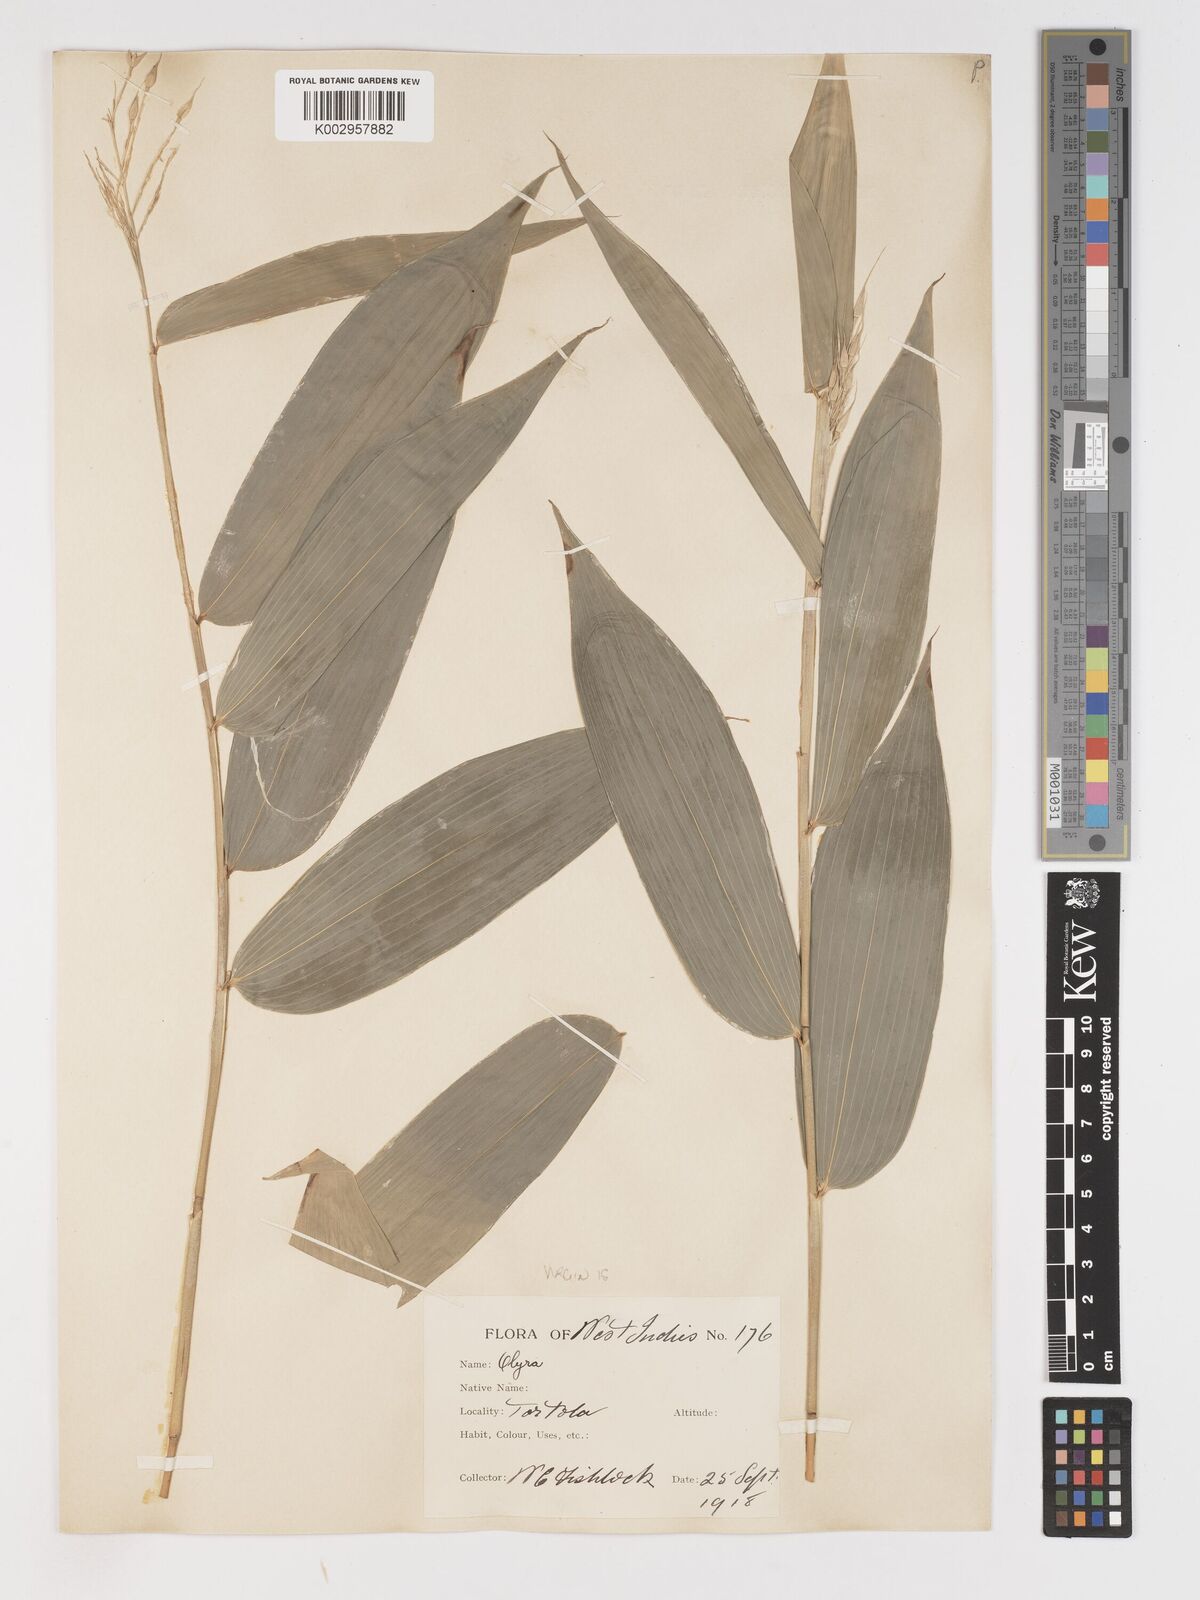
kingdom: Plantae
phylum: Tracheophyta
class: Liliopsida
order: Poales
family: Poaceae
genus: Olyra
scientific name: Olyra latifolia
